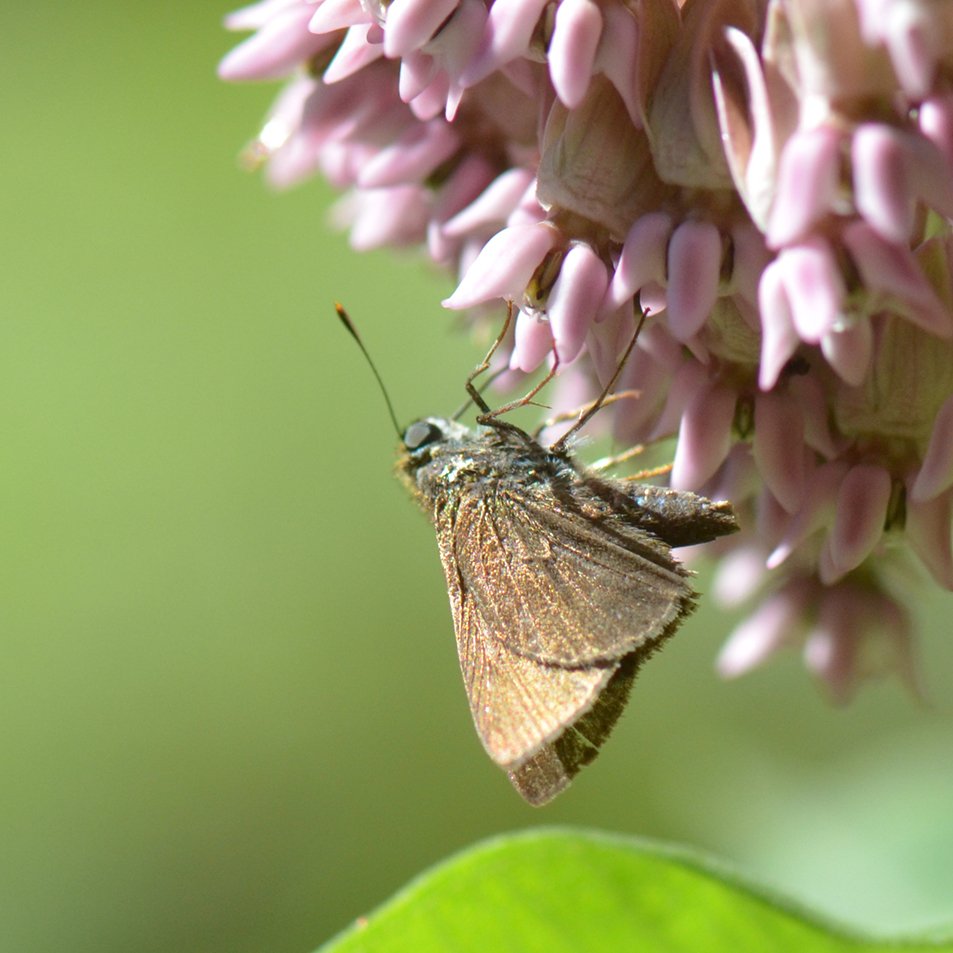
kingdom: Animalia
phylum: Arthropoda
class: Insecta
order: Lepidoptera
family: Hesperiidae
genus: Euphyes
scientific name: Euphyes vestris
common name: Dun Skipper
